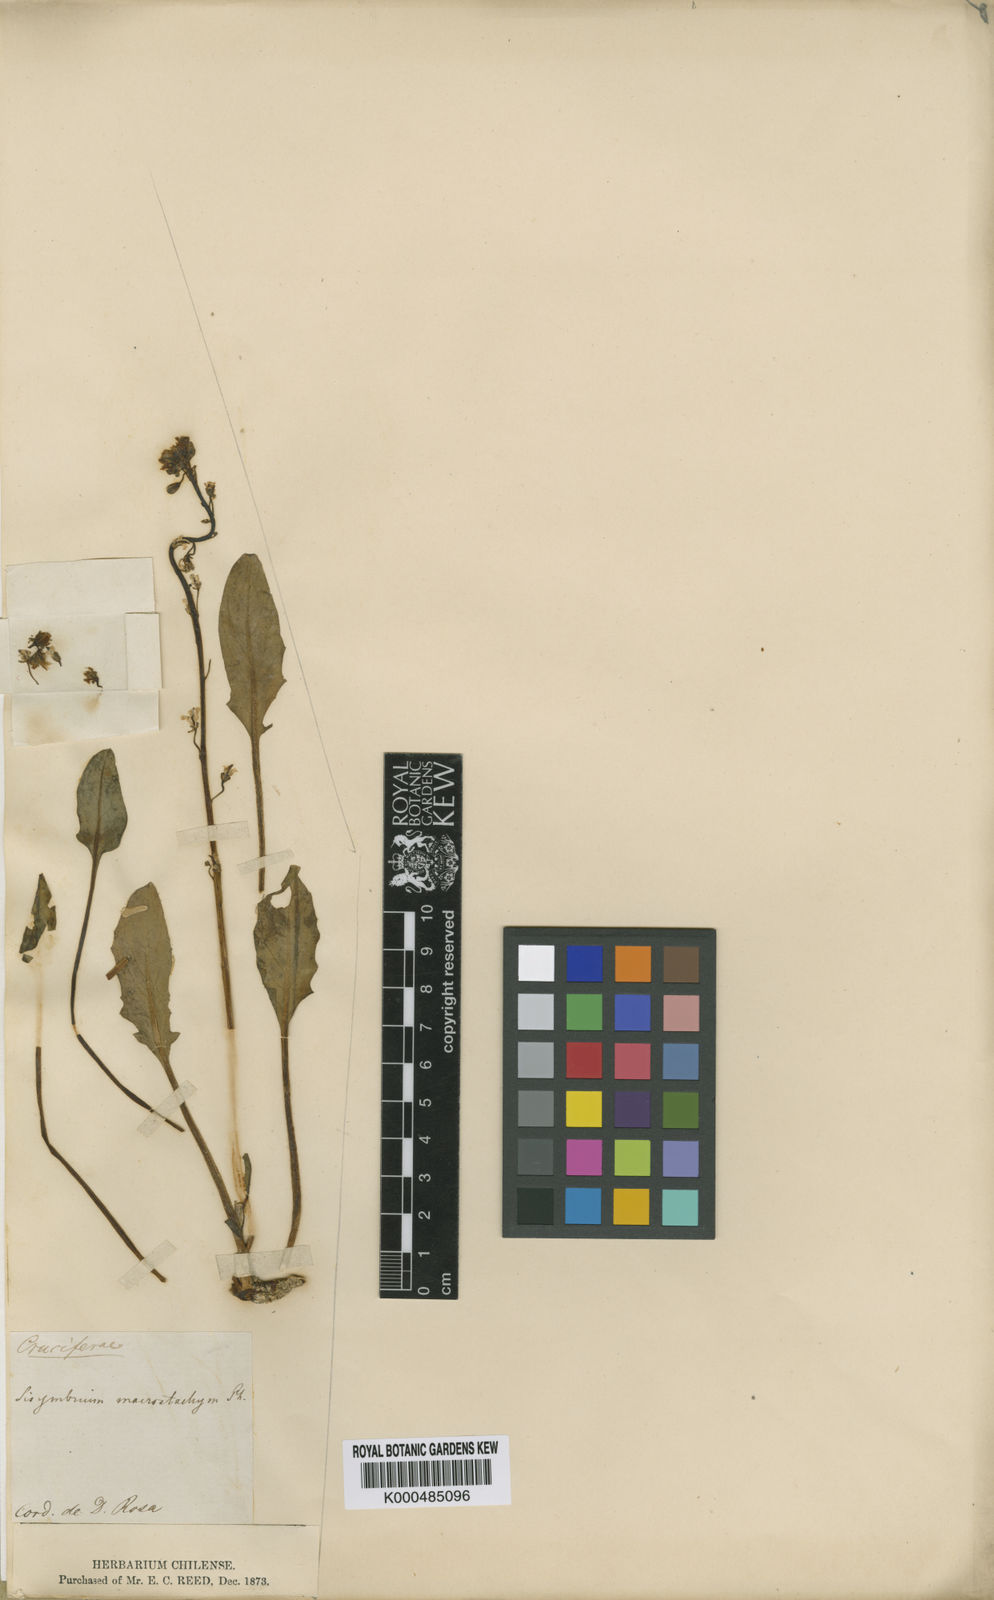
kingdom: Plantae
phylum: Tracheophyta
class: Magnoliopsida
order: Brassicales
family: Brassicaceae
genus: Sibara
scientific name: Sibara macrostachya
